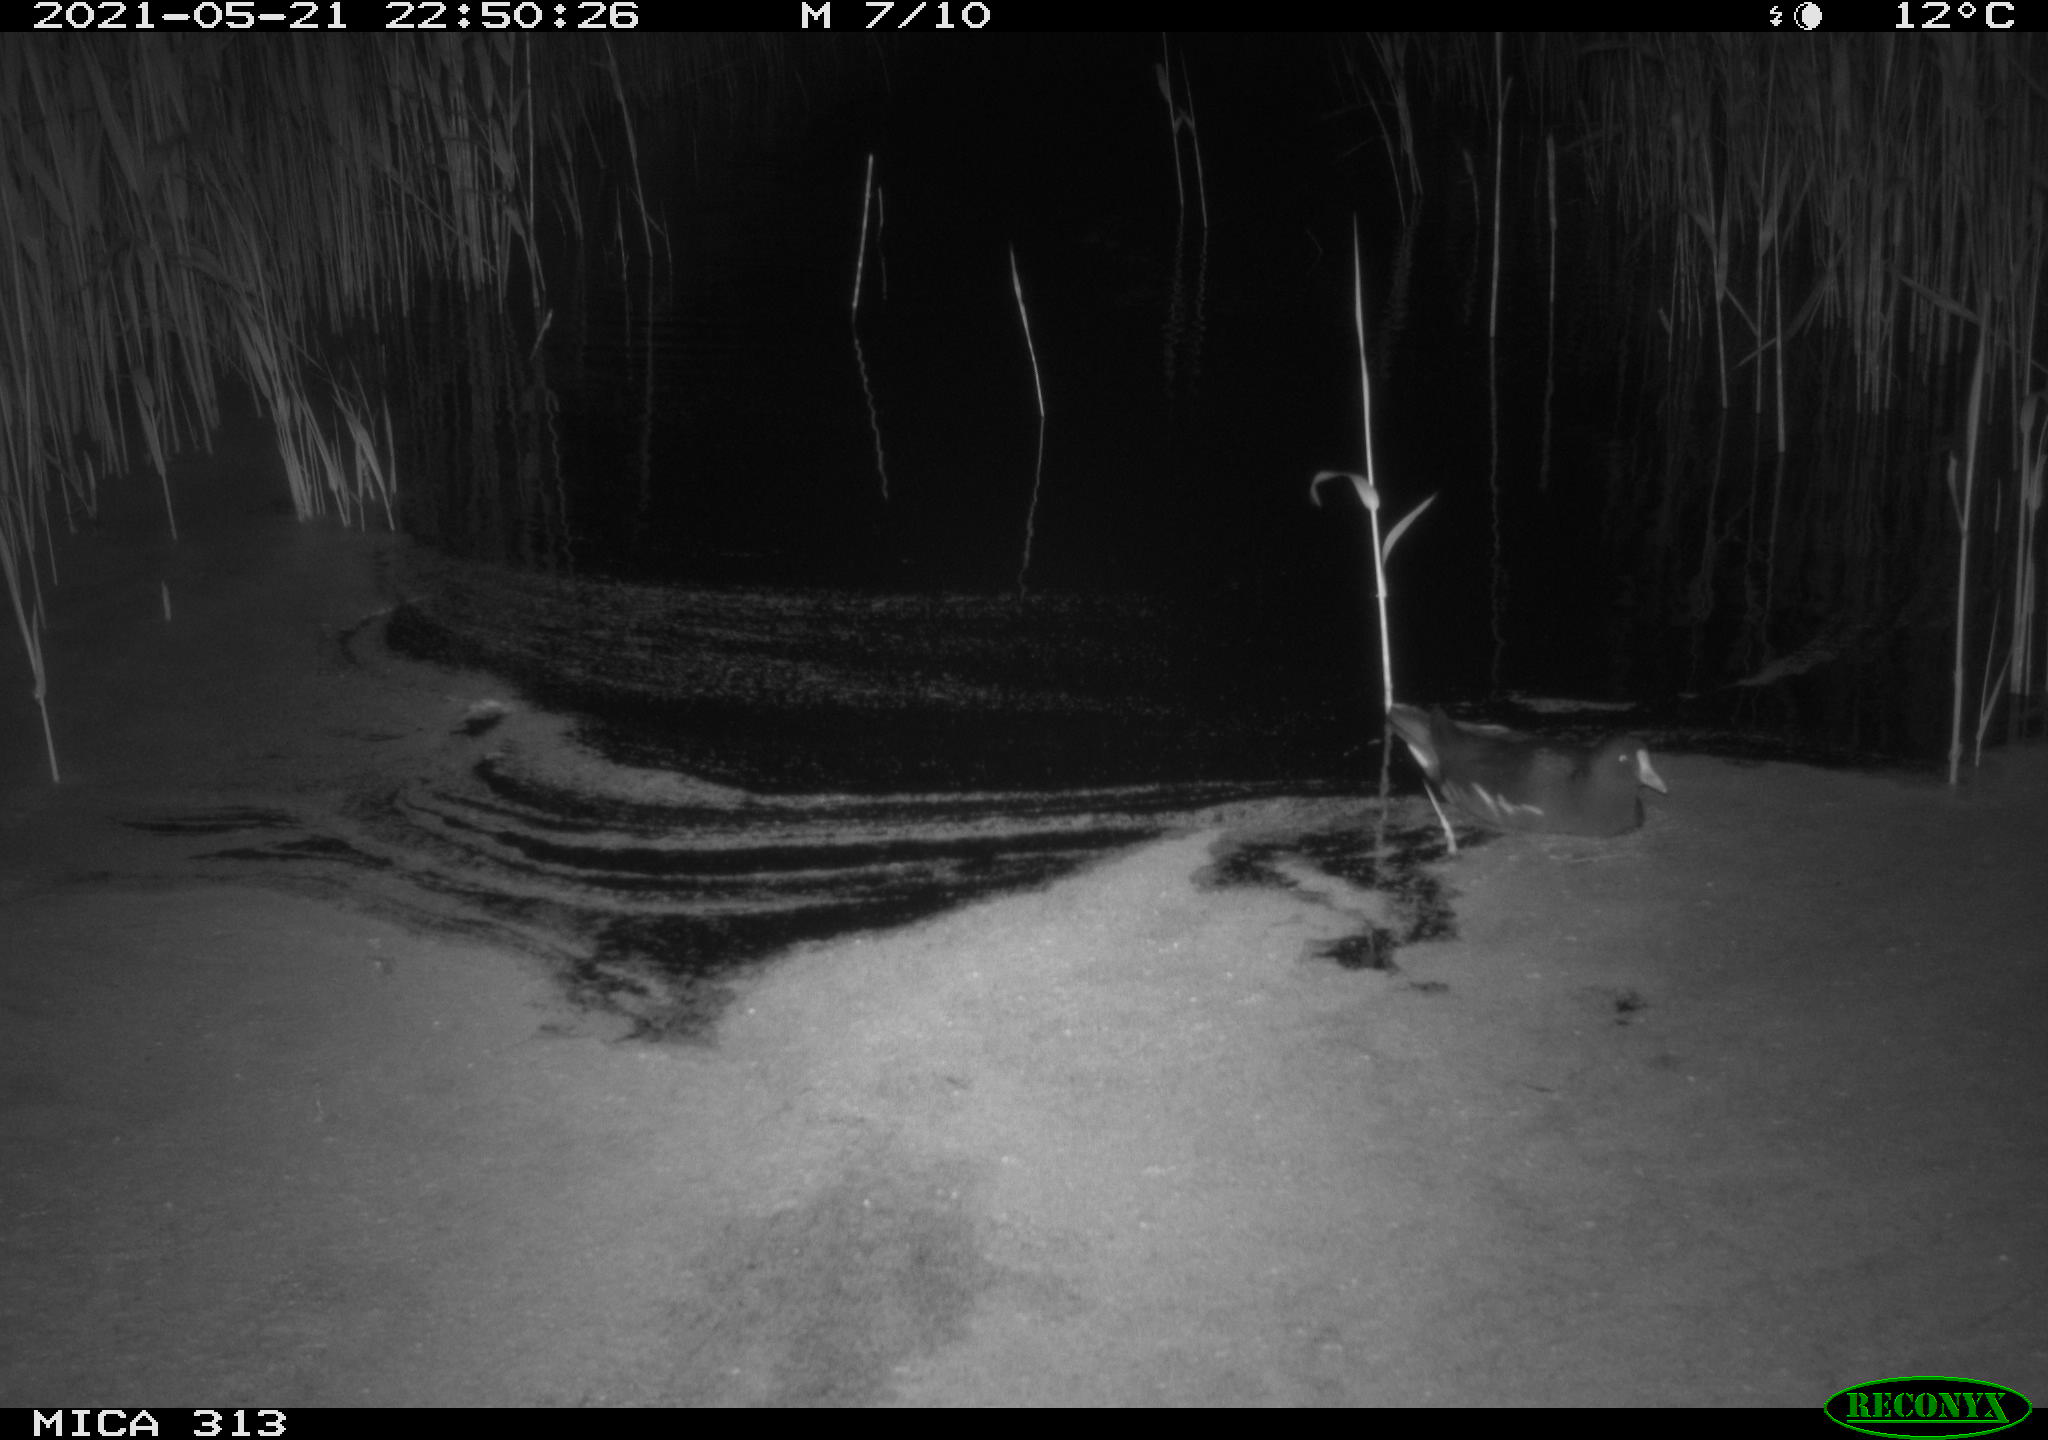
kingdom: Animalia
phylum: Chordata
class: Aves
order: Gruiformes
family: Rallidae
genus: Gallinula
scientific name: Gallinula chloropus
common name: Common moorhen
